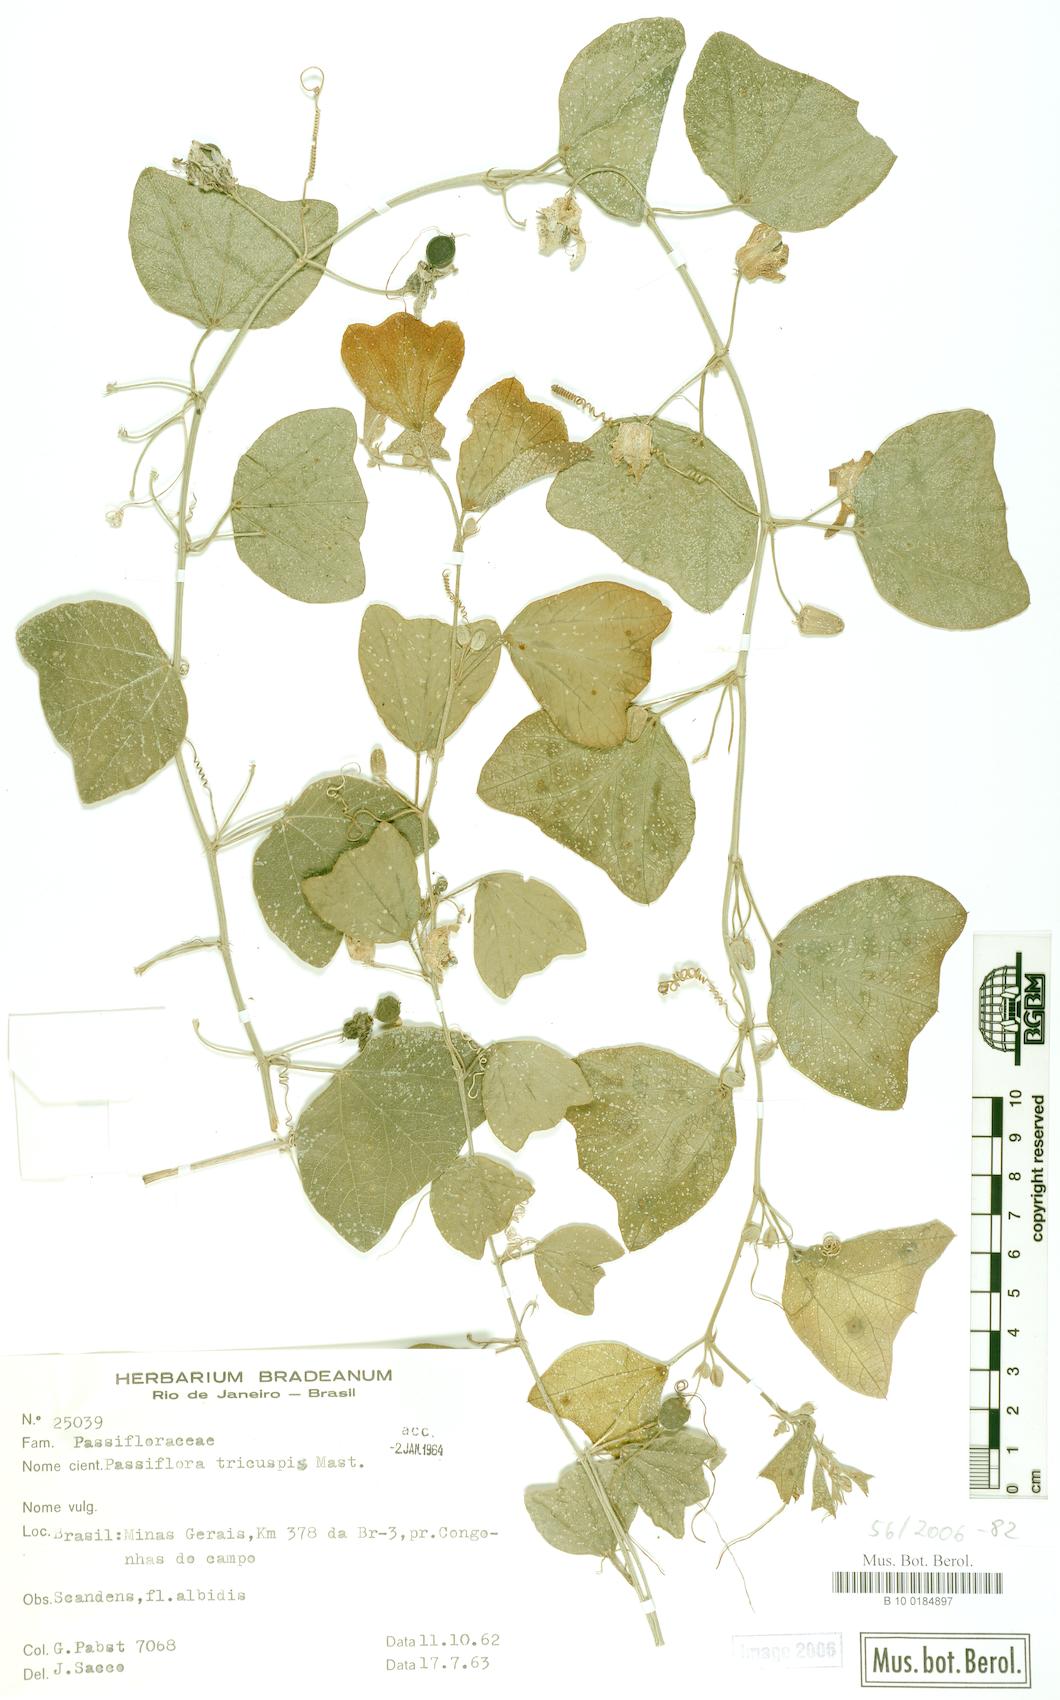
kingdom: Plantae
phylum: Tracheophyta
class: Magnoliopsida
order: Malpighiales
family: Passifloraceae
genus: Passiflora
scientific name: Passiflora tricuspis
